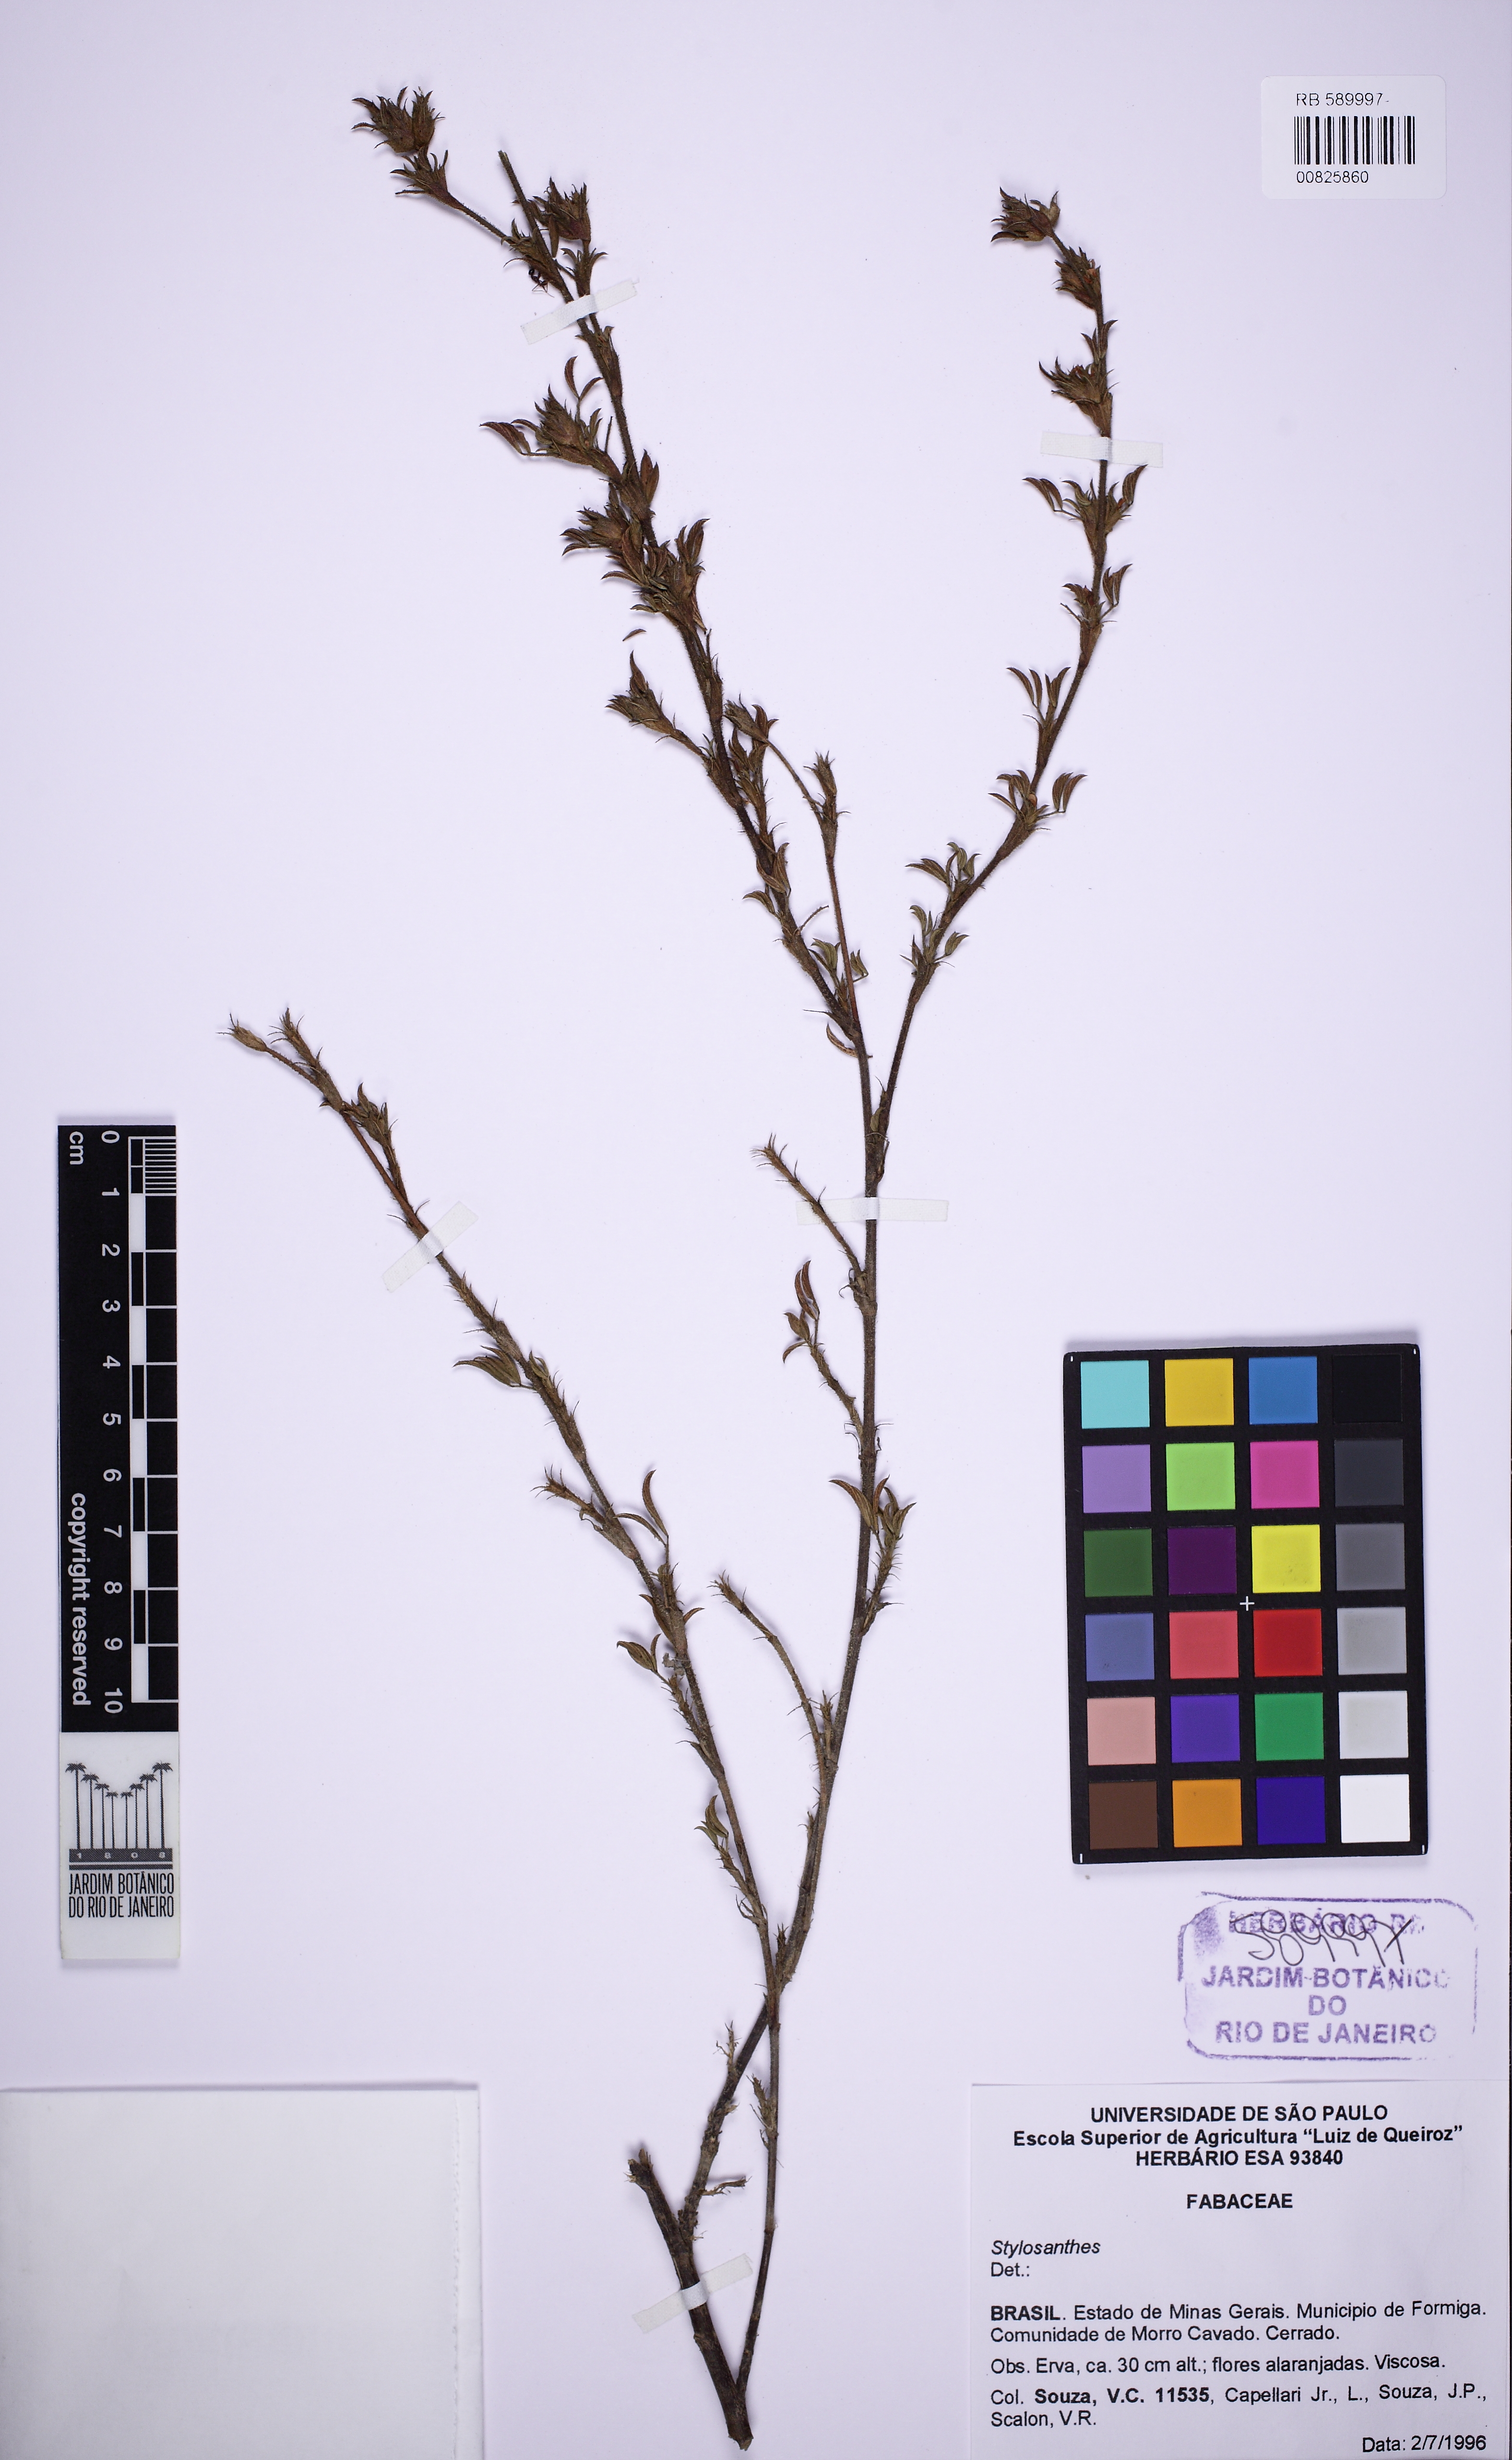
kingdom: Plantae
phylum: Tracheophyta
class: Magnoliopsida
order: Fabales
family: Fabaceae
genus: Stylosanthes
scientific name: Stylosanthes
